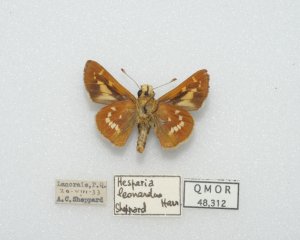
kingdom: Animalia
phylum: Arthropoda
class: Insecta
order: Lepidoptera
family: Hesperiidae
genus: Hesperia
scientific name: Hesperia leonardus
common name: Leonard's Skipper
